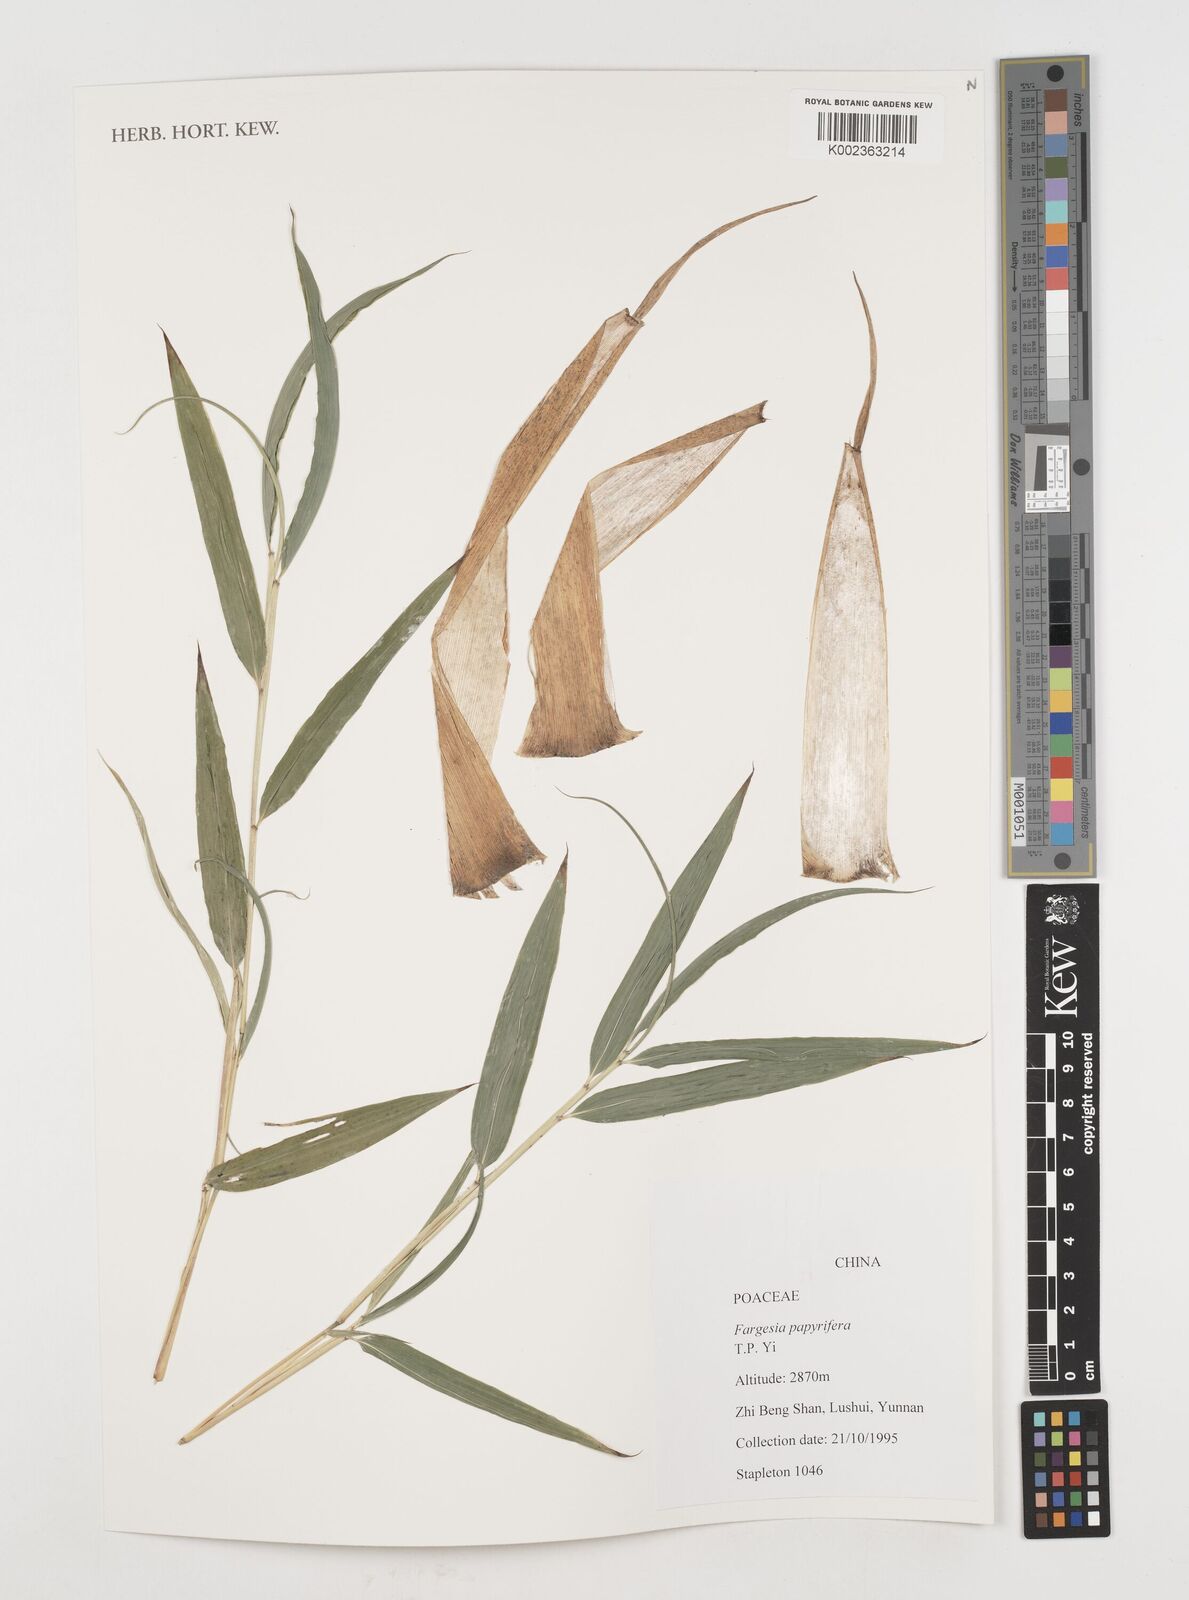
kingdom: Plantae
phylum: Tracheophyta
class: Liliopsida
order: Poales
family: Poaceae
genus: Borinda
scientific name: Borinda papyrifera
